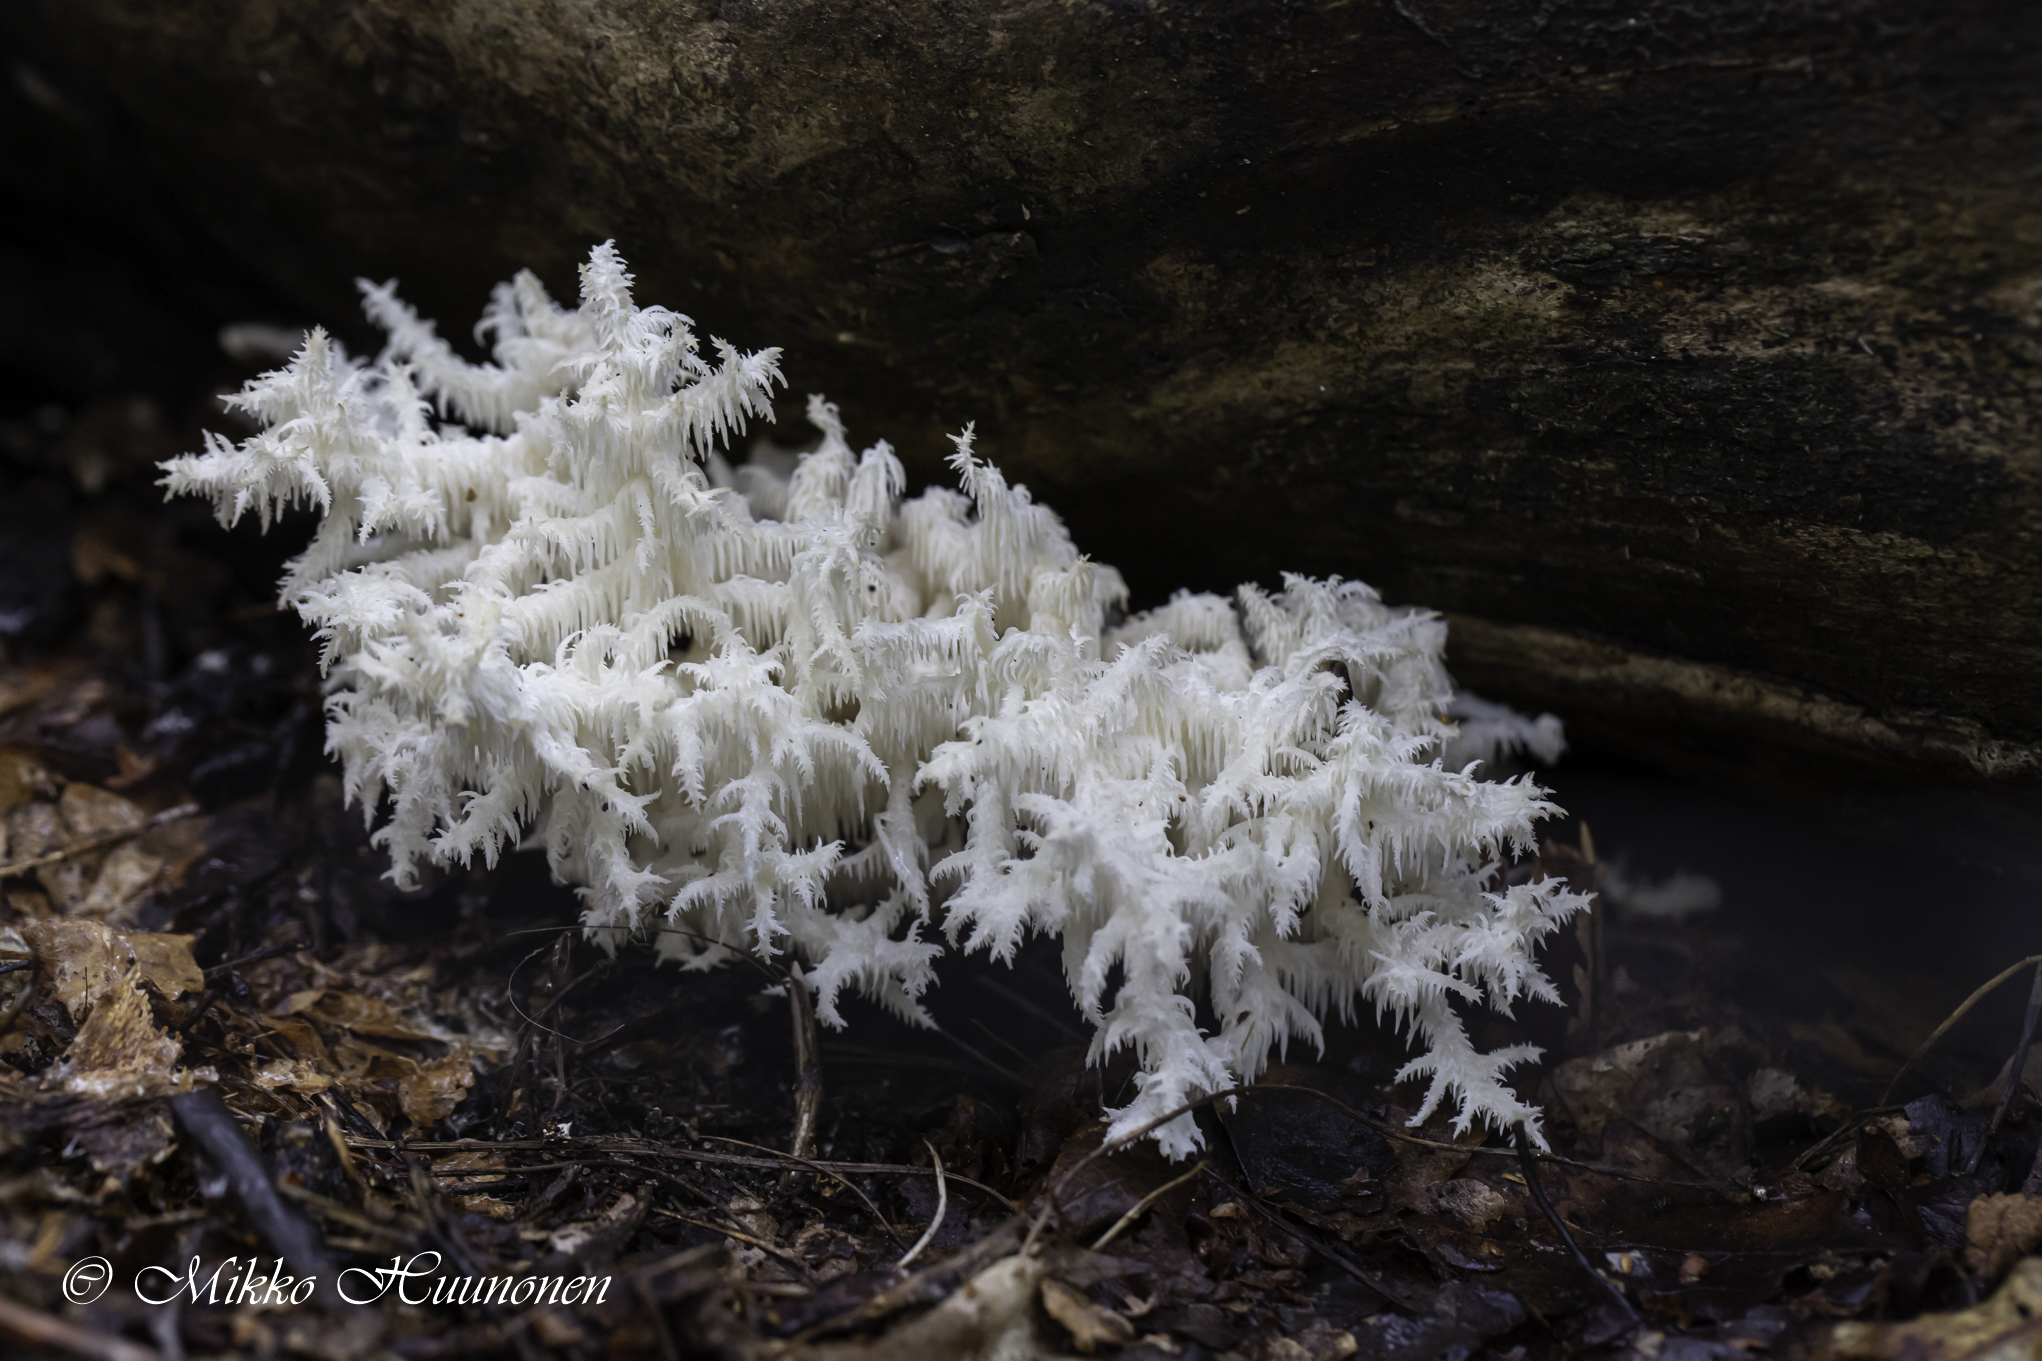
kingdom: Fungi
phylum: Basidiomycota
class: Agaricomycetes
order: Russulales
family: Hericiaceae
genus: Hericium
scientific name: Hericium coralloides
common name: Coral tooth
